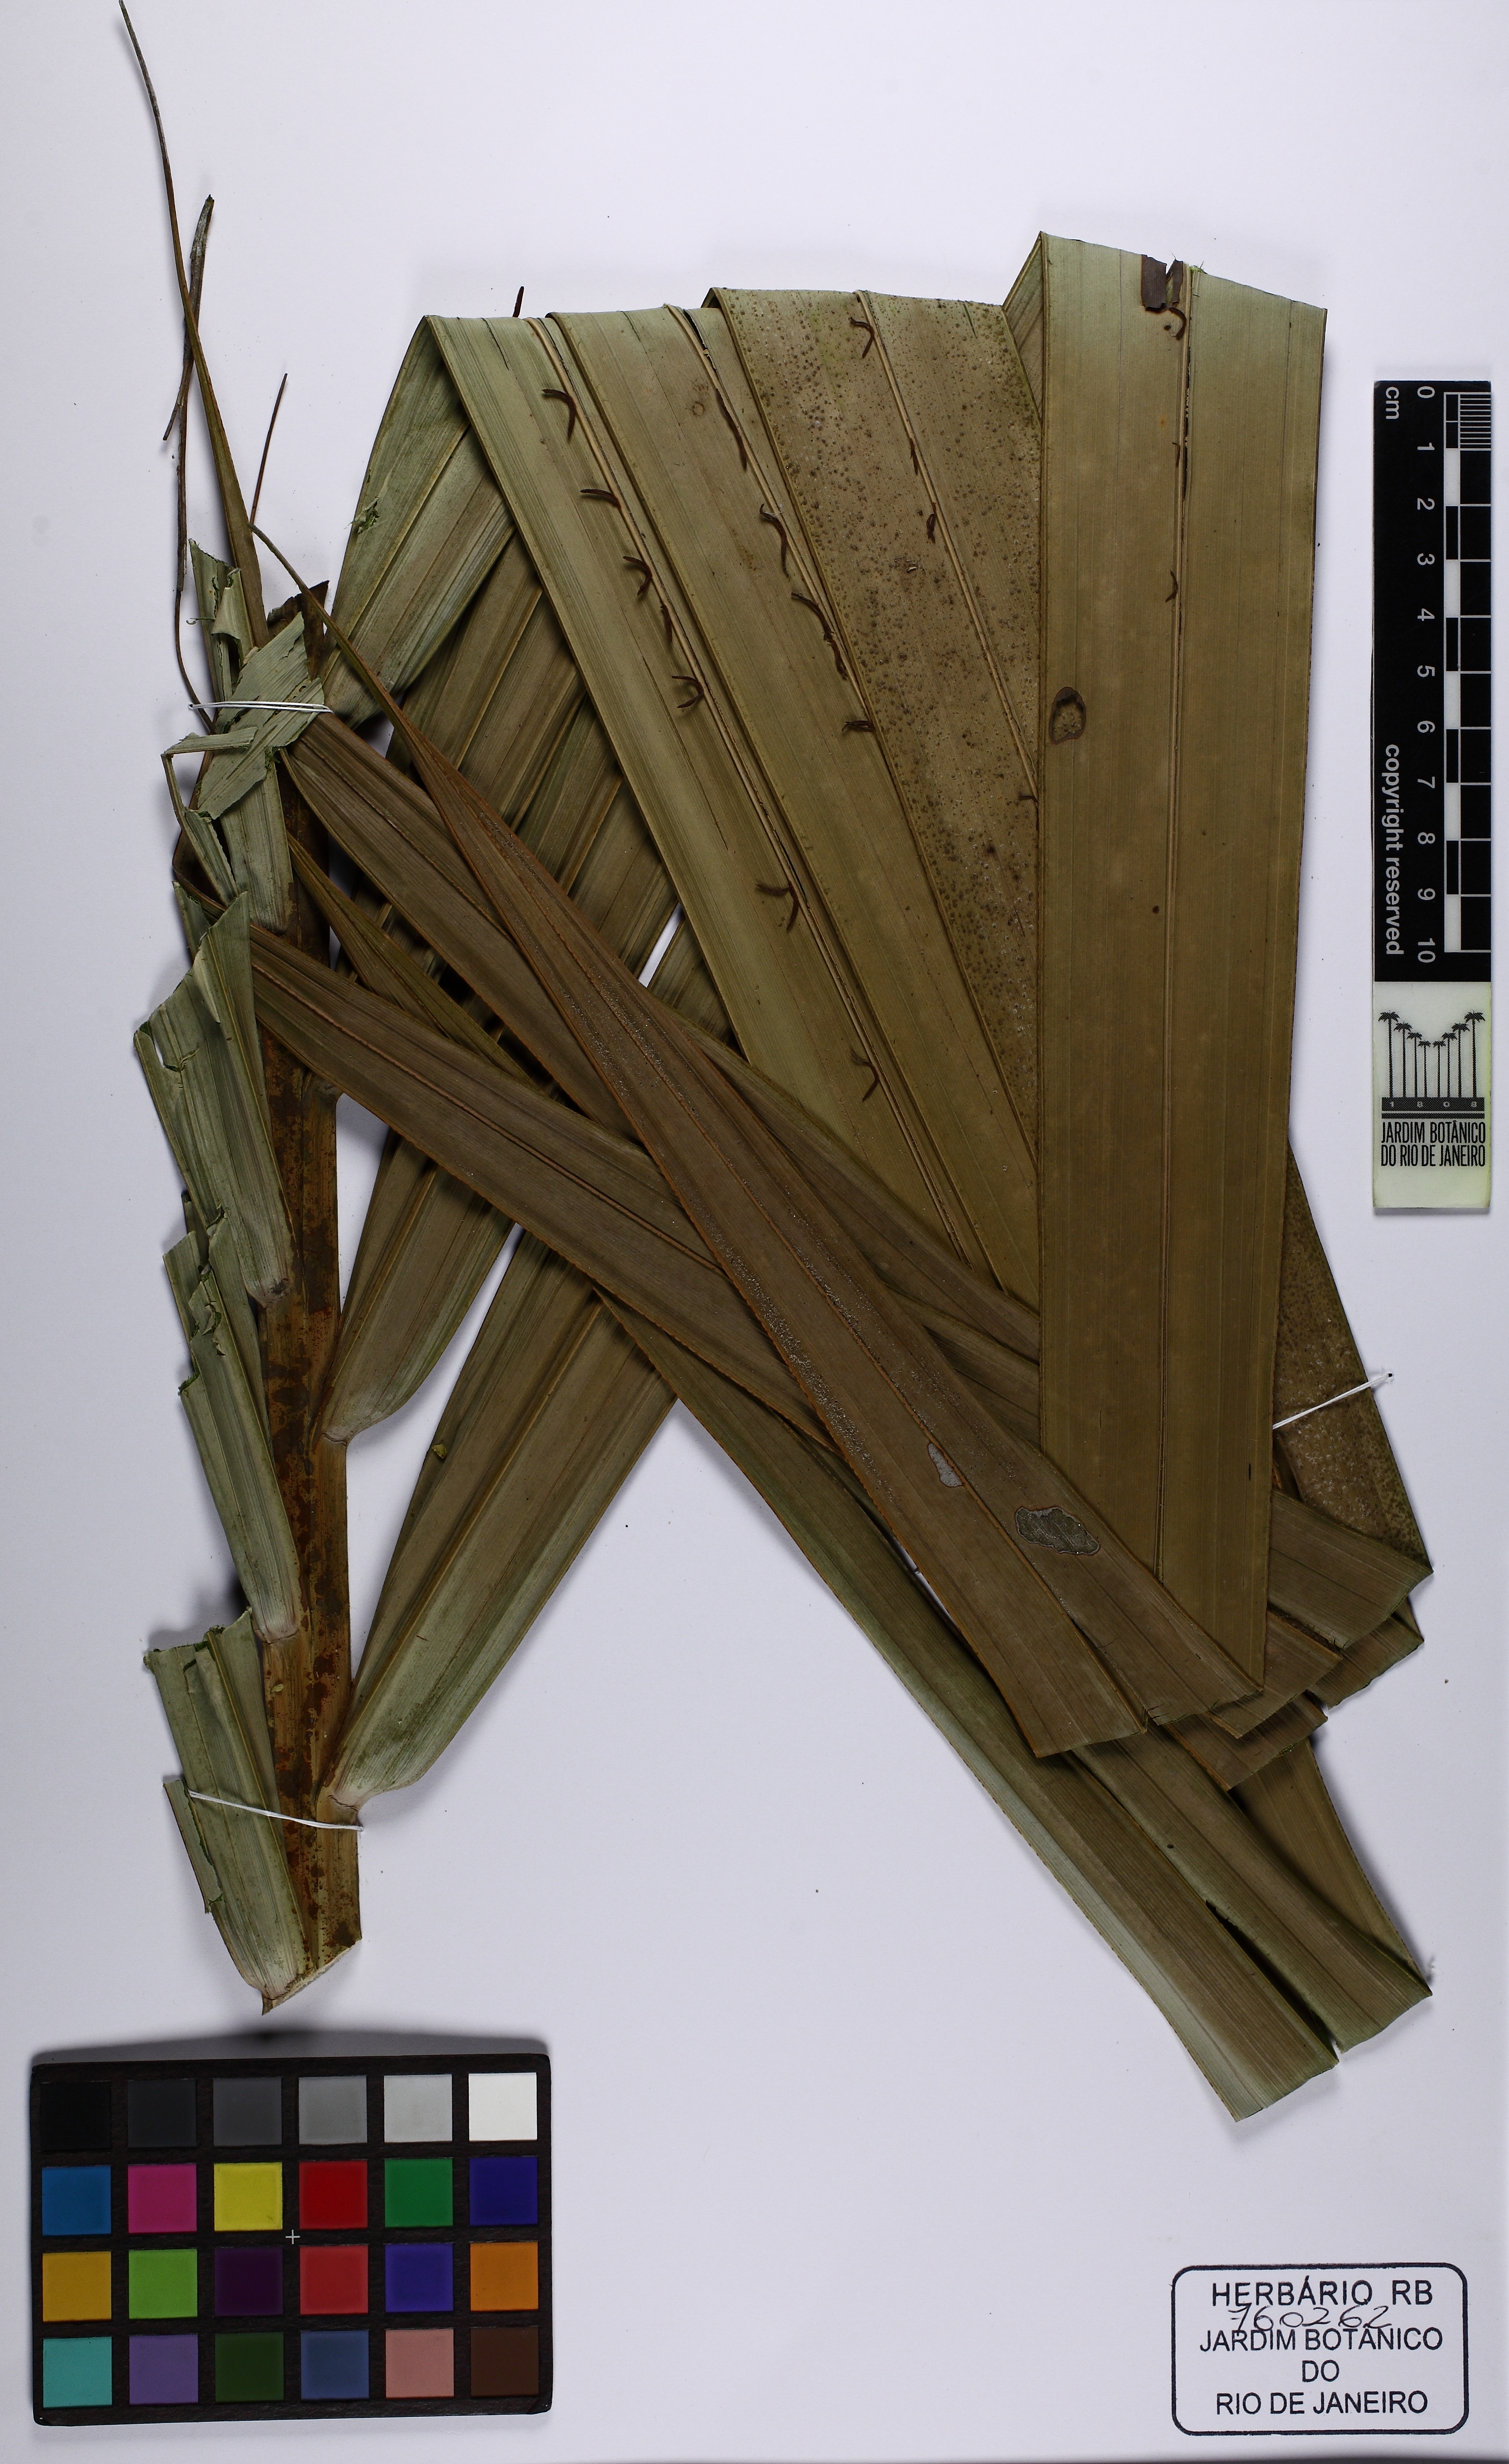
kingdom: Plantae
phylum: Tracheophyta
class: Liliopsida
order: Arecales
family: Arecaceae
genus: Nypa
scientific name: Nypa fruticans
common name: Mangrove palm
